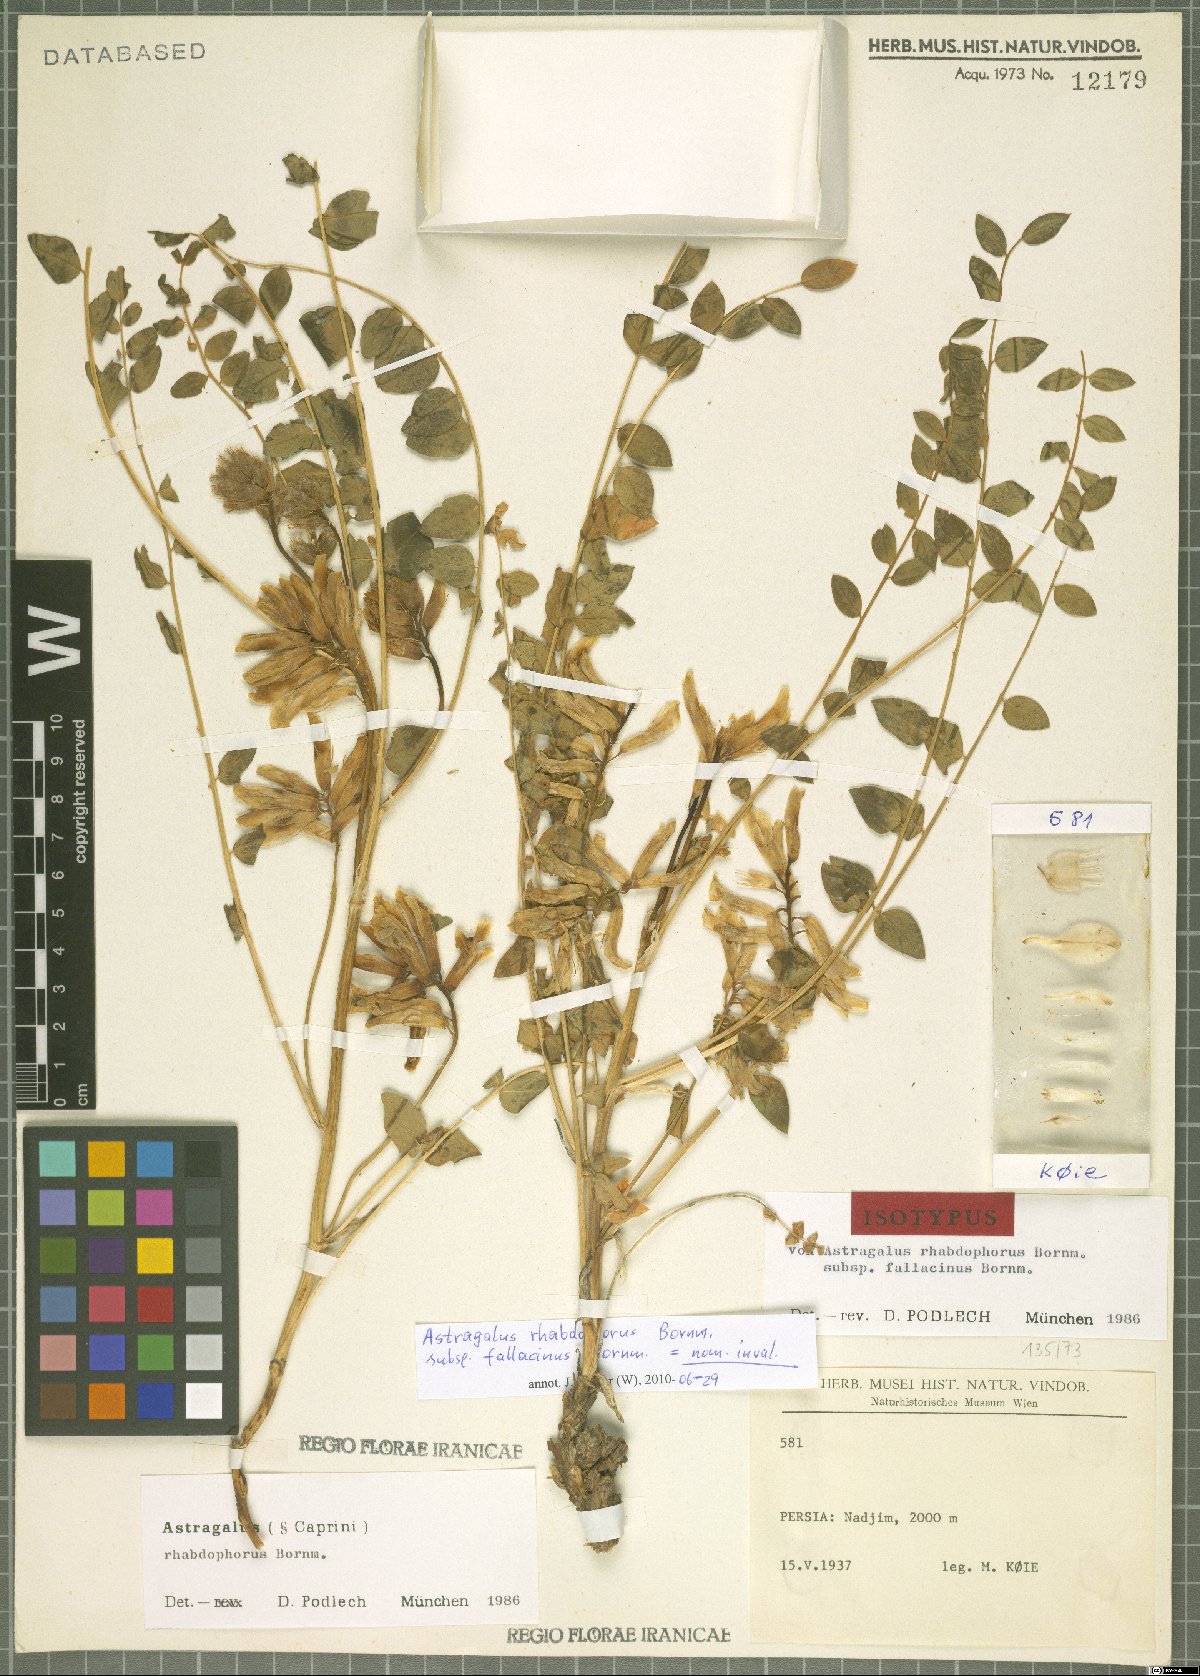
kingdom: Plantae
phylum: Tracheophyta
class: Magnoliopsida
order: Fabales
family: Fabaceae
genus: Astragalus
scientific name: Astragalus rhabdophorus
